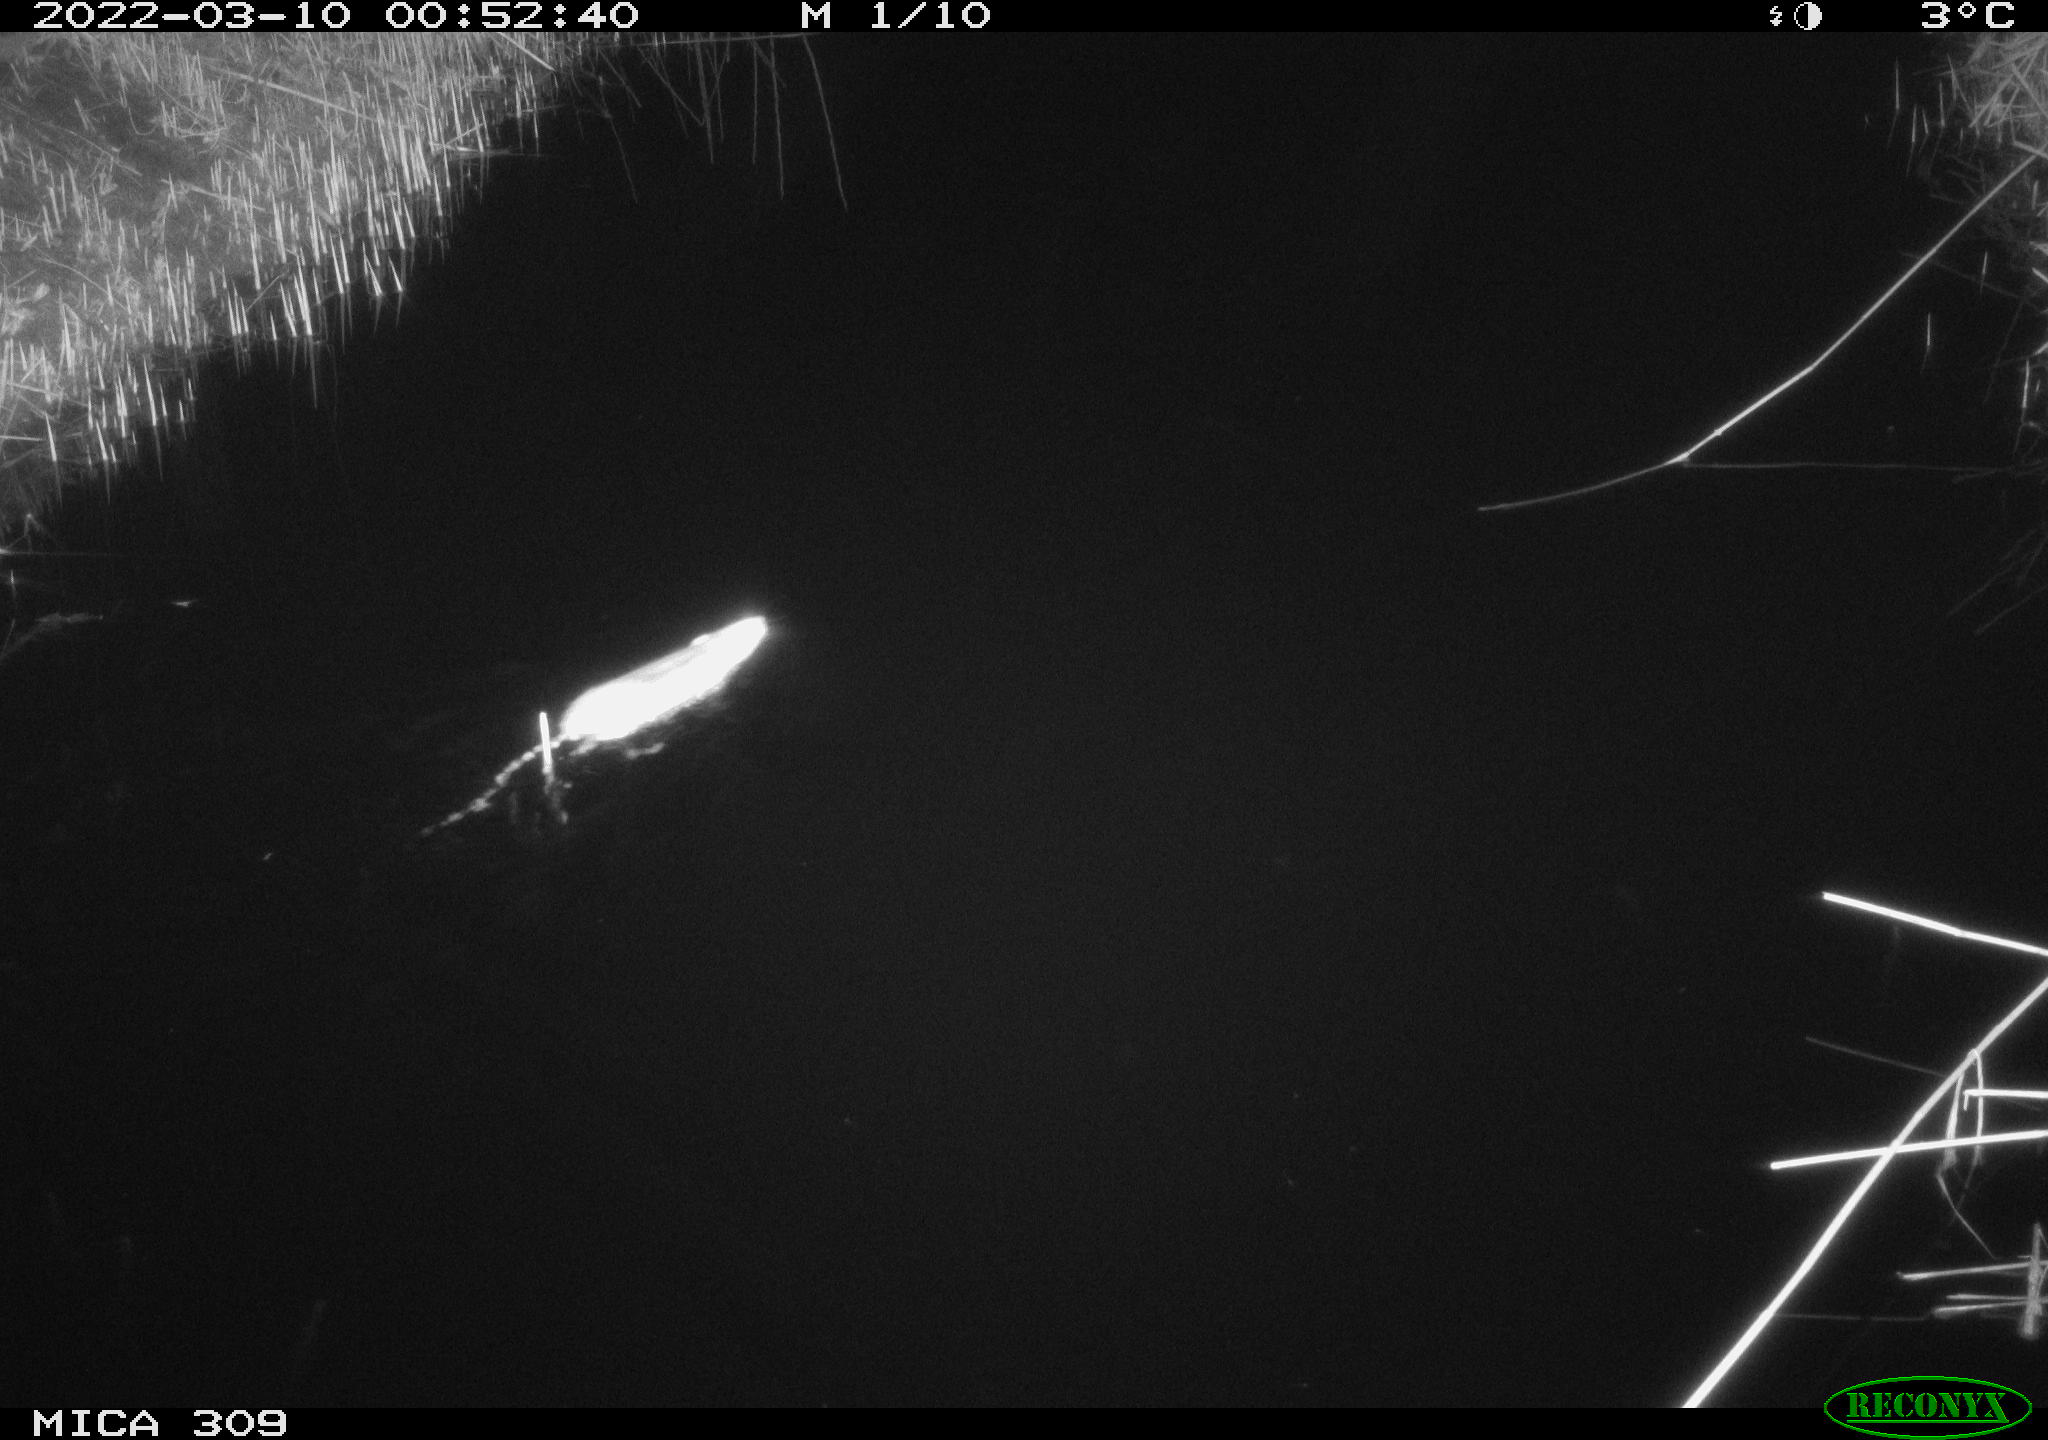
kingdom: Animalia
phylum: Chordata
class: Mammalia
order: Rodentia
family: Muridae
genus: Rattus
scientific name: Rattus norvegicus
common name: Brown rat
